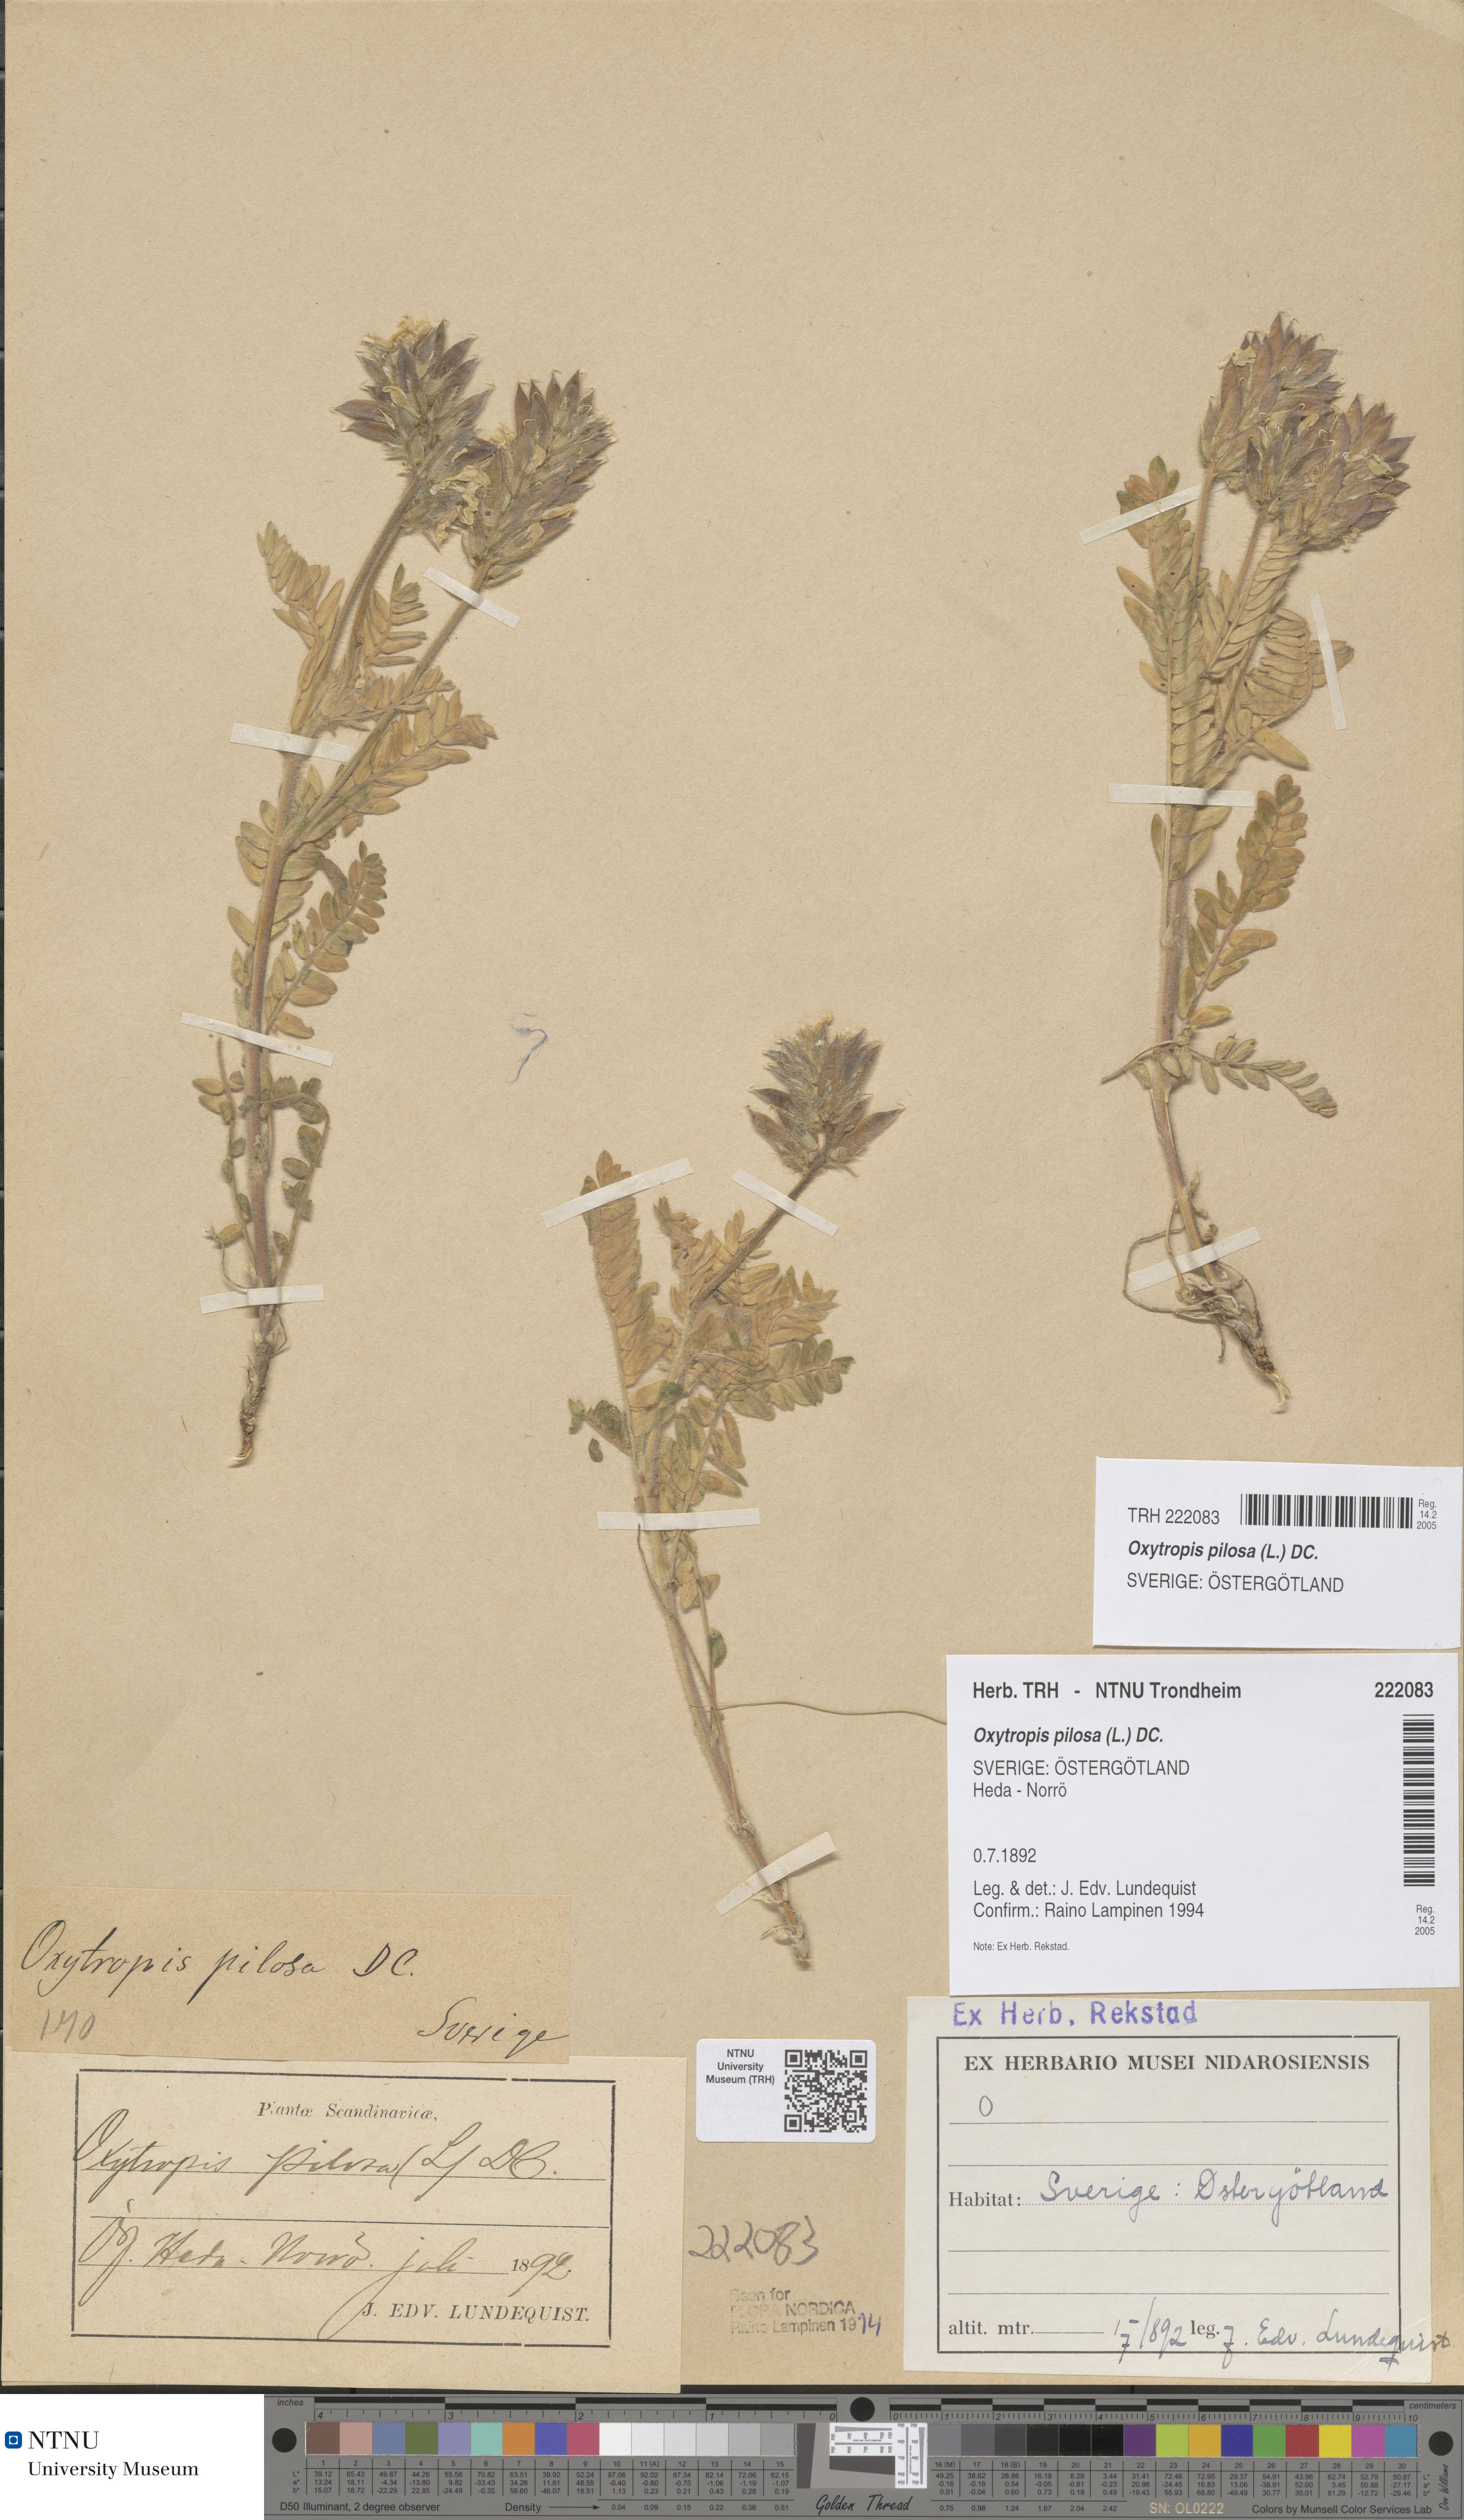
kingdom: Plantae
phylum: Tracheophyta
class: Magnoliopsida
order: Fabales
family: Fabaceae
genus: Oxytropis
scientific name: Oxytropis pilosa
